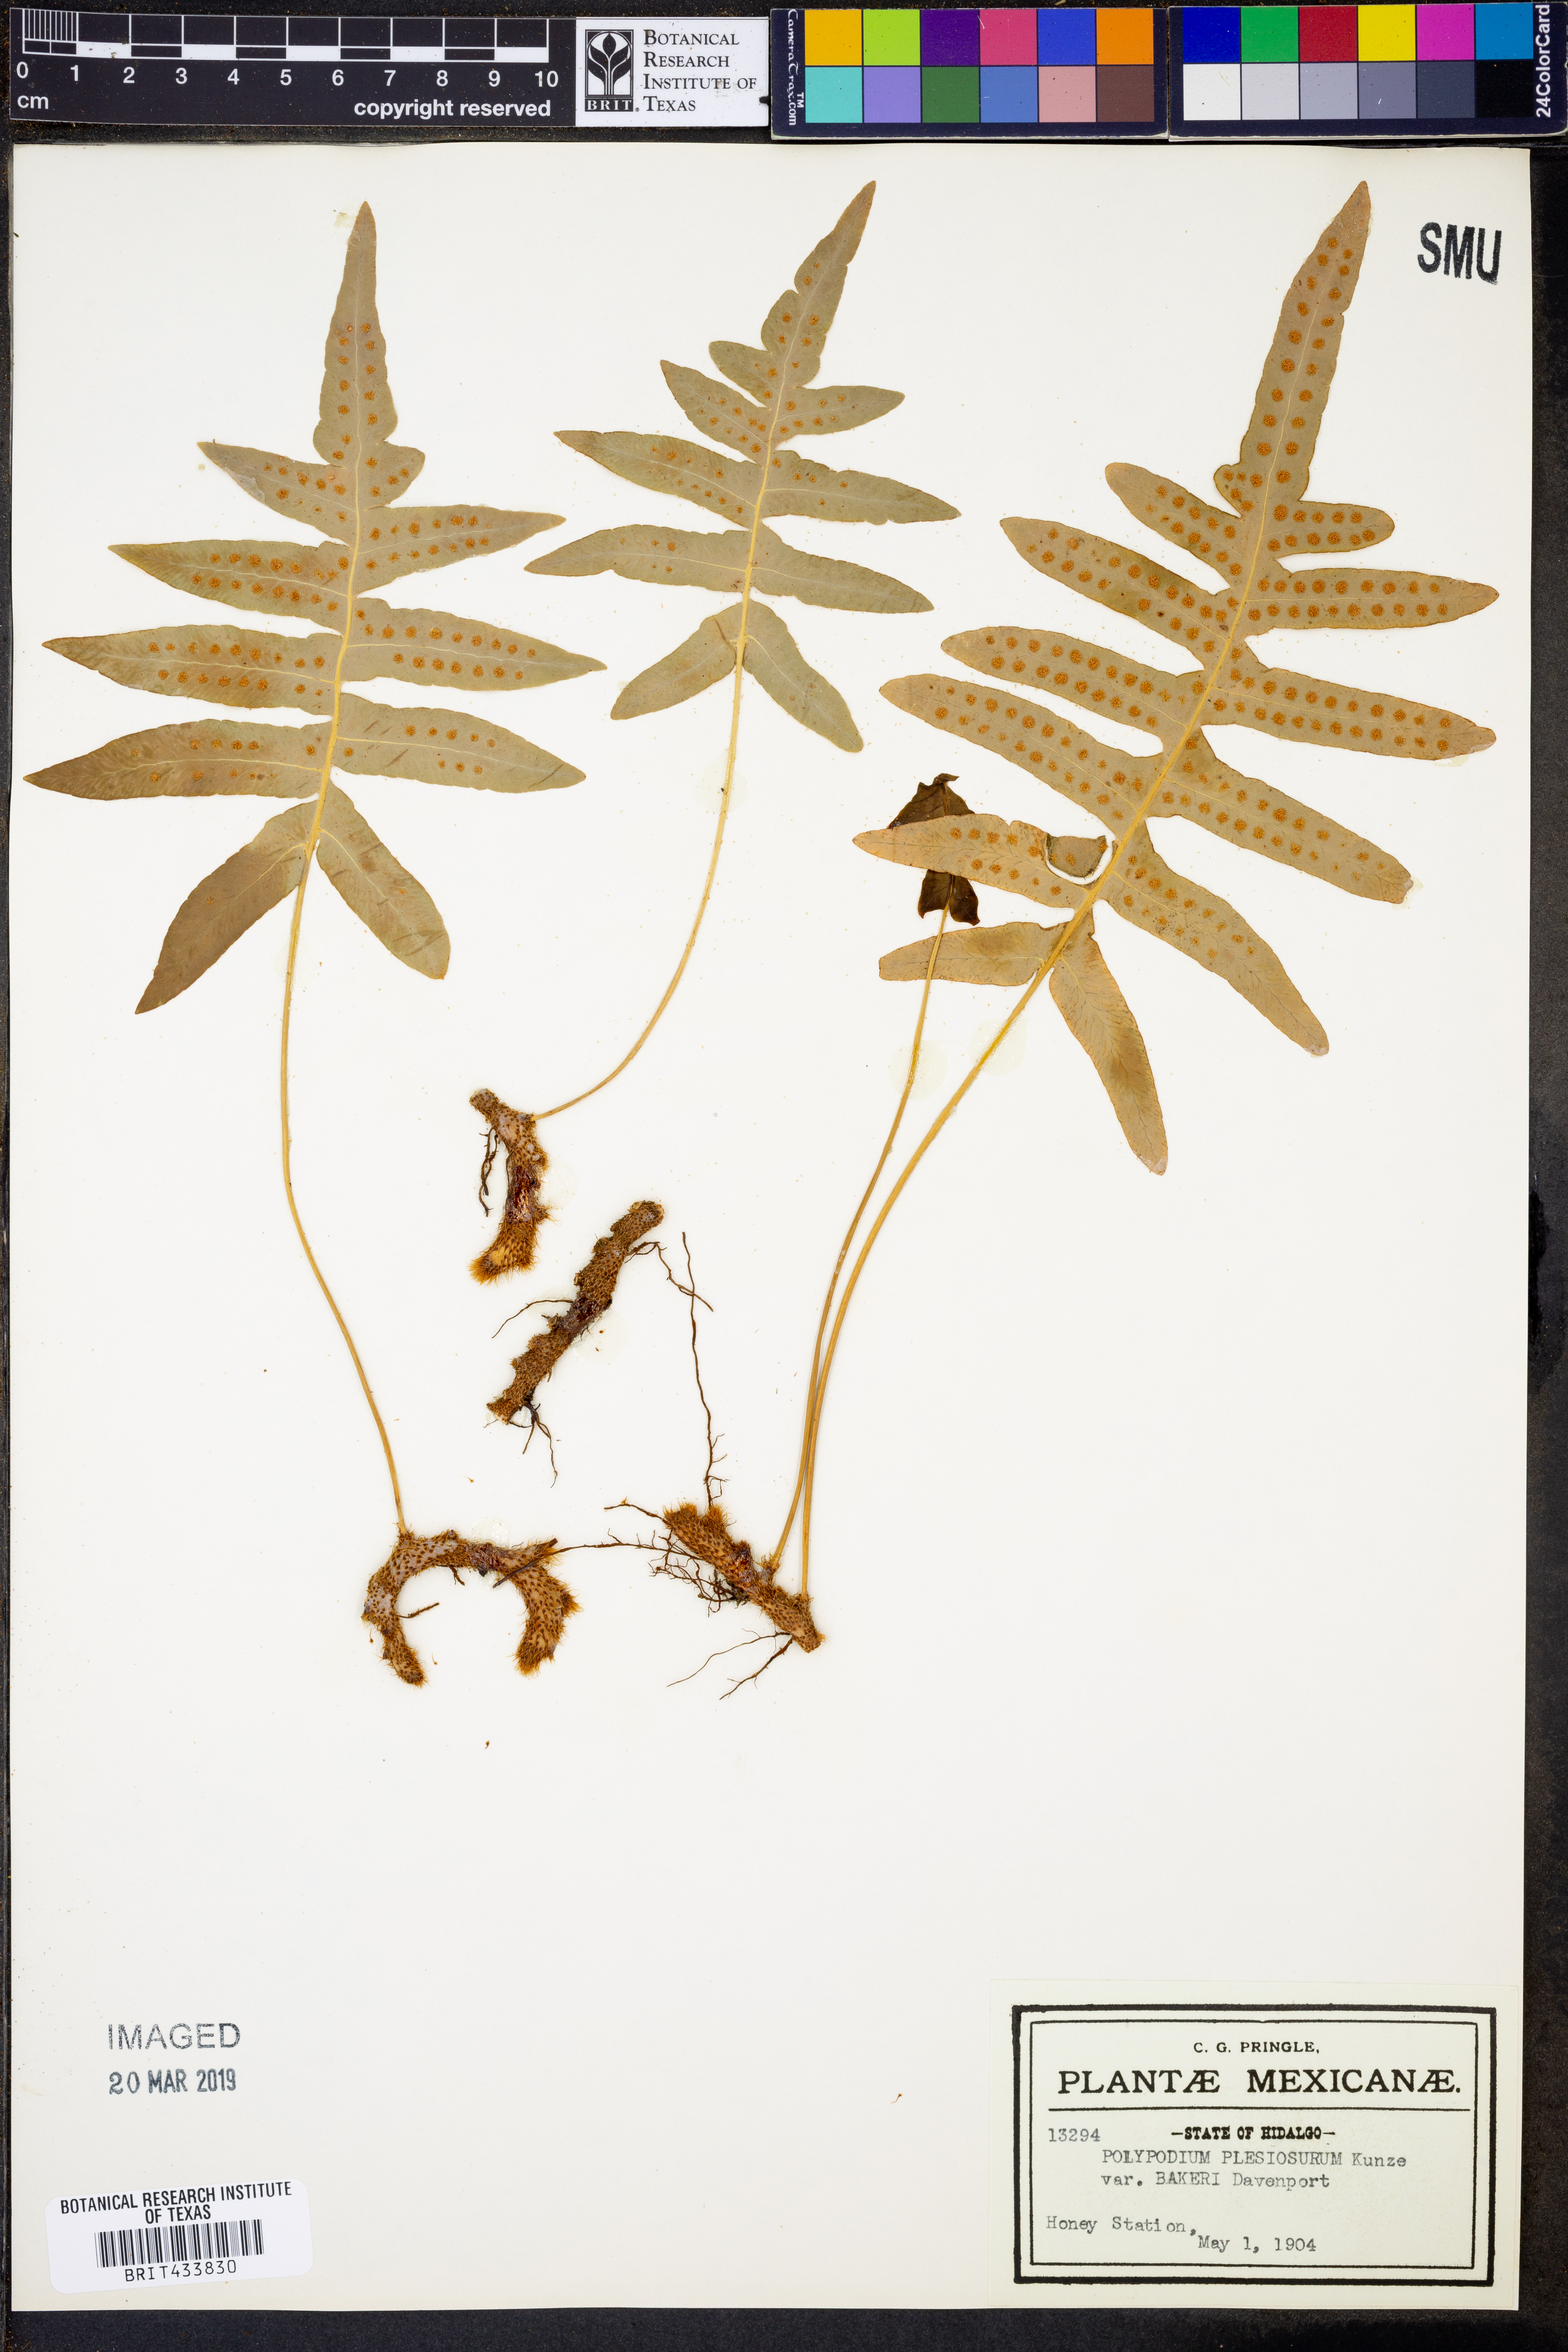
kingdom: Plantae
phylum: Tracheophyta
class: Polypodiopsida
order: Polypodiales
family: Polypodiaceae
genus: Polypodium
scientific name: Polypodium arcanum
